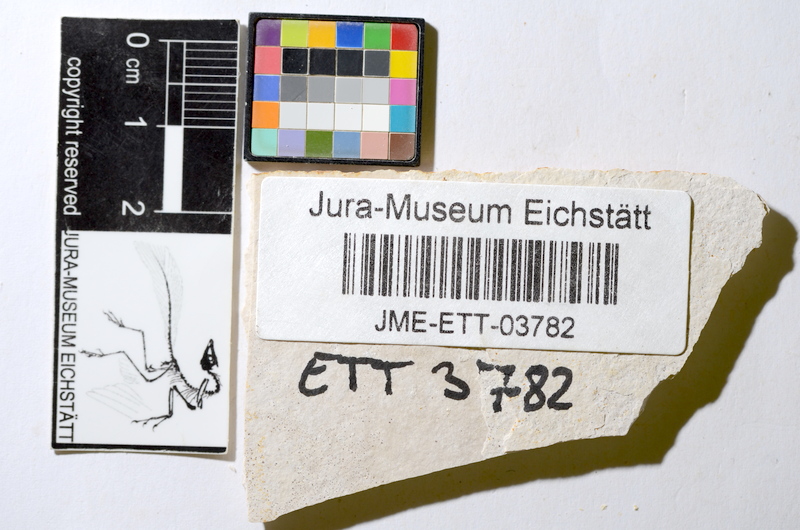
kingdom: Animalia
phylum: Chordata
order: Salmoniformes
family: Orthogonikleithridae
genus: Orthogonikleithrus
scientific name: Orthogonikleithrus hoelli
